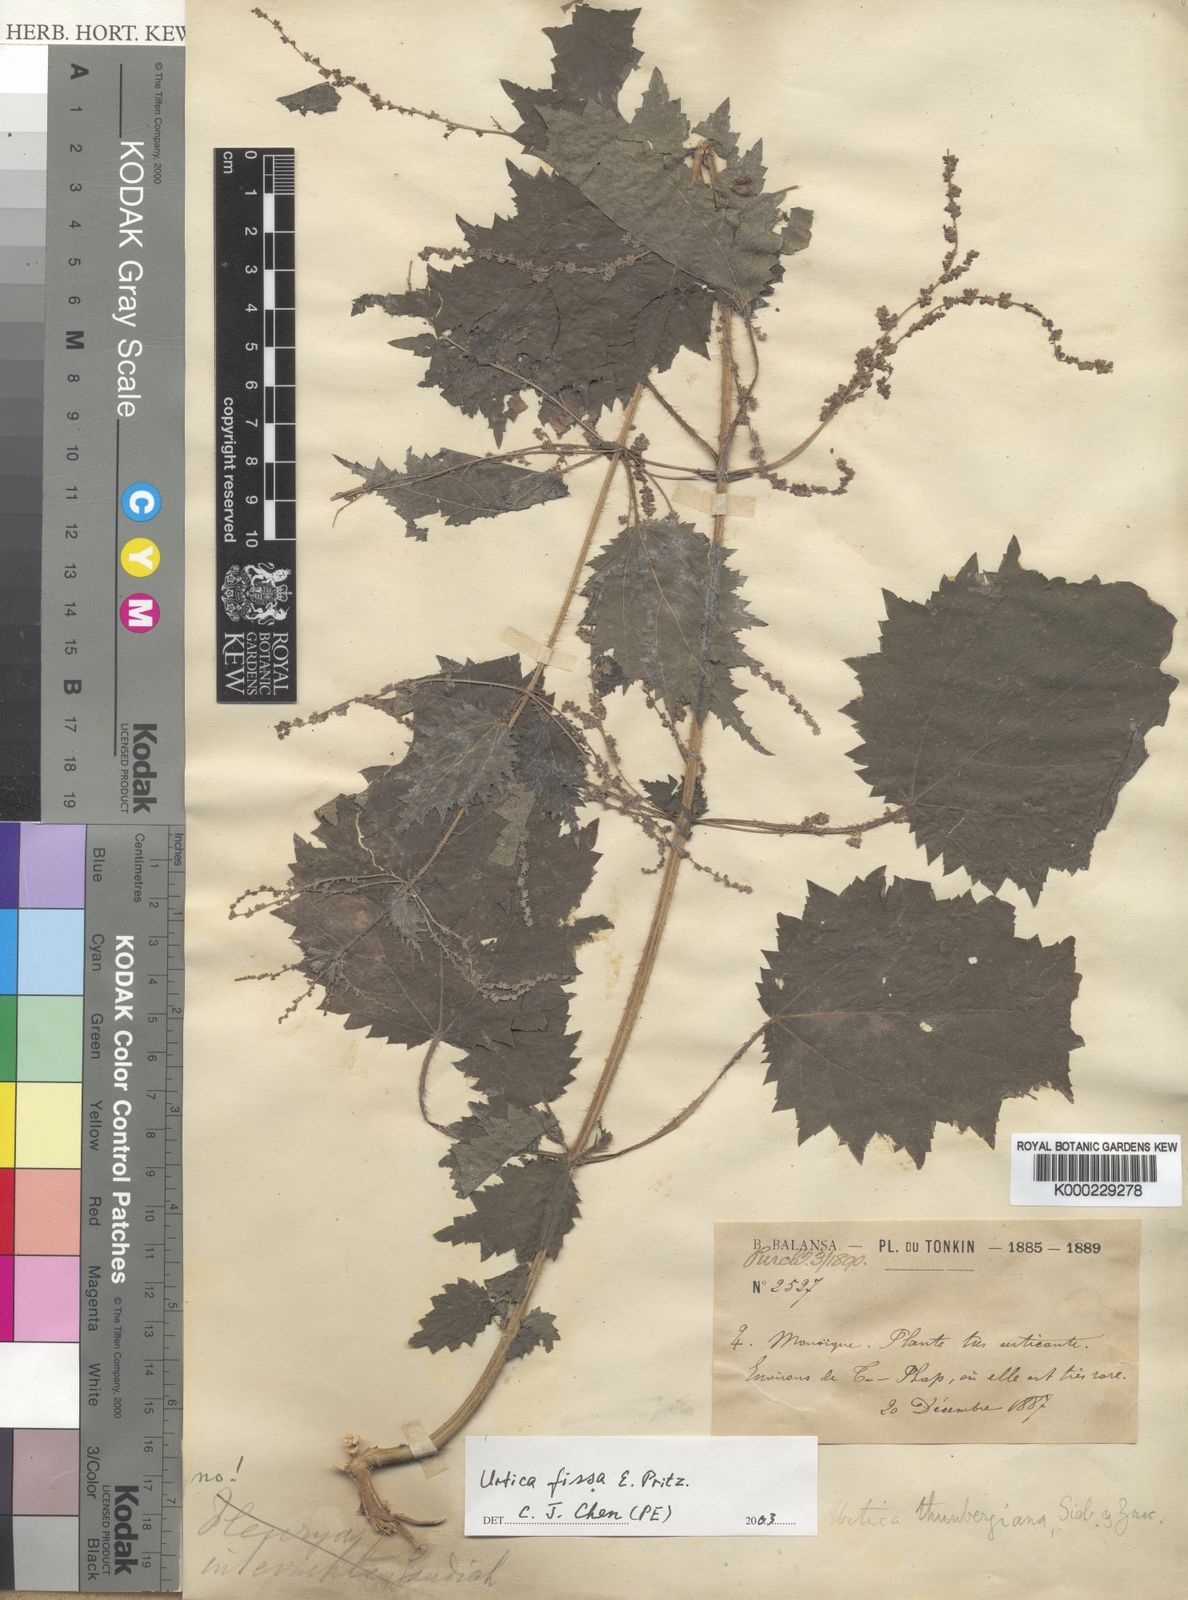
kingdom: Plantae
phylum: Tracheophyta
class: Magnoliopsida
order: Rosales
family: Urticaceae
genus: Urtica
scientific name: Urtica
